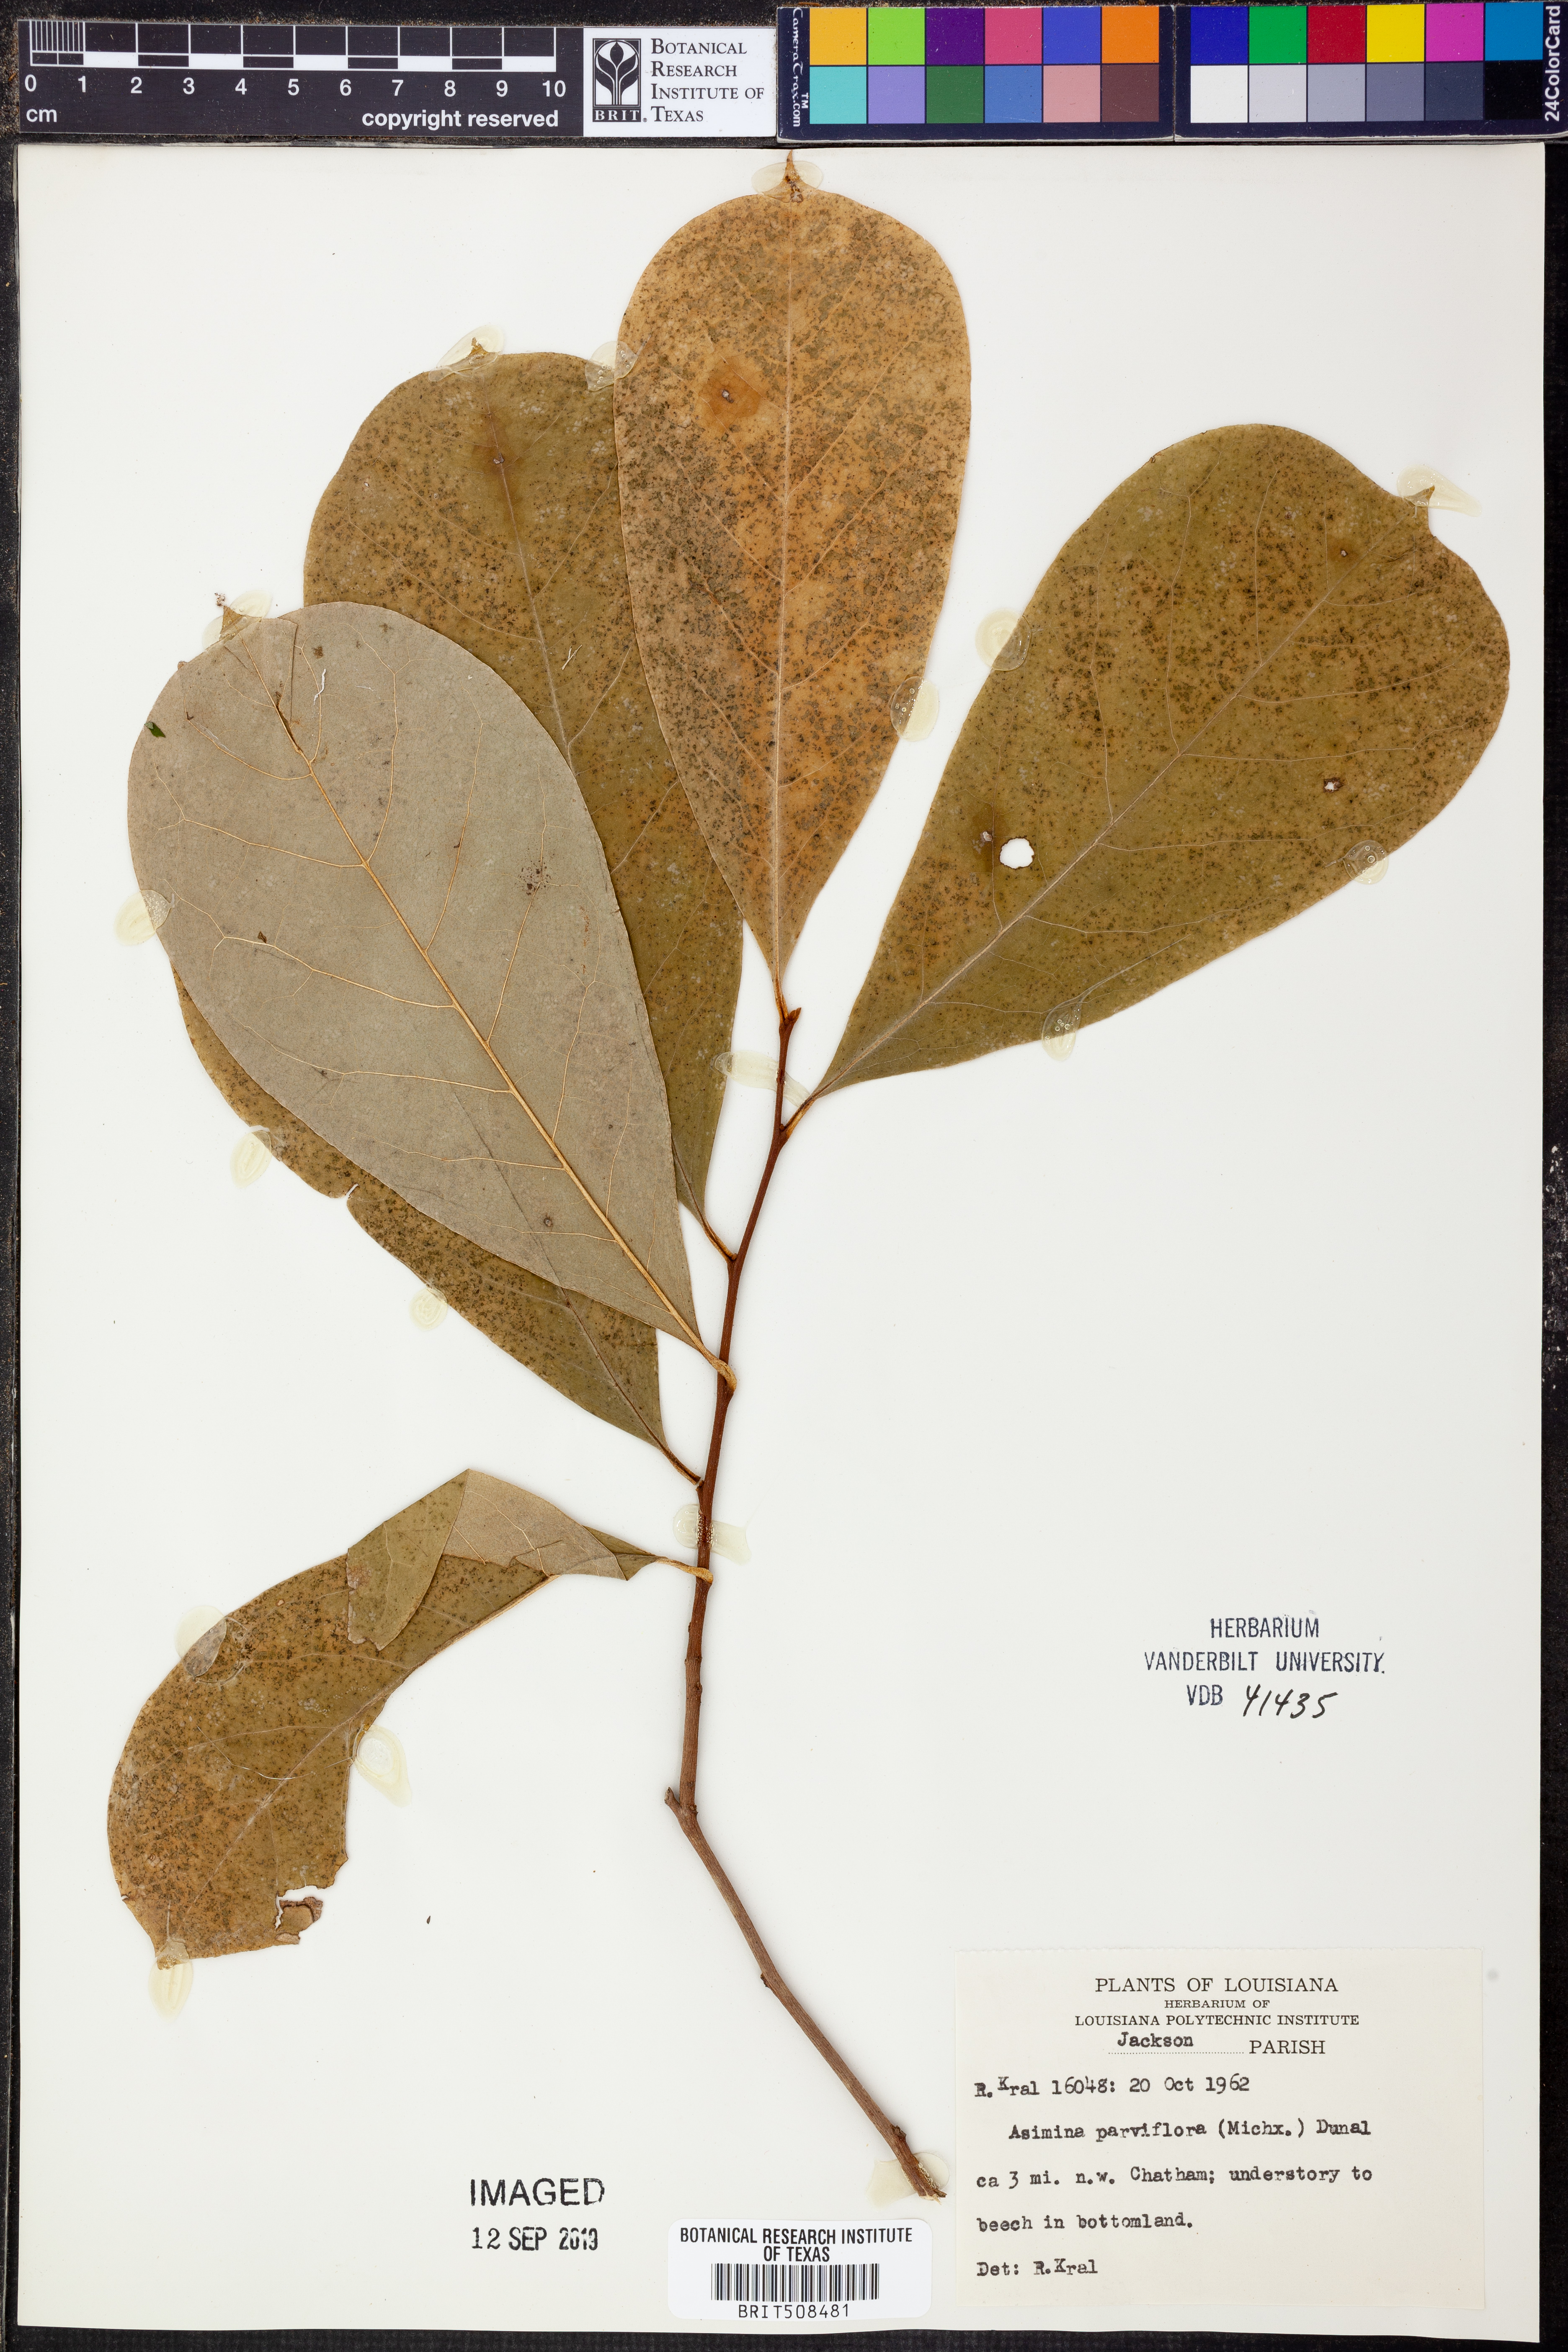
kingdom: Plantae
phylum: Tracheophyta
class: Magnoliopsida
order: Magnoliales
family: Annonaceae
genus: Asimina
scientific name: Asimina parviflora
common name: Dwarf pawpaw
